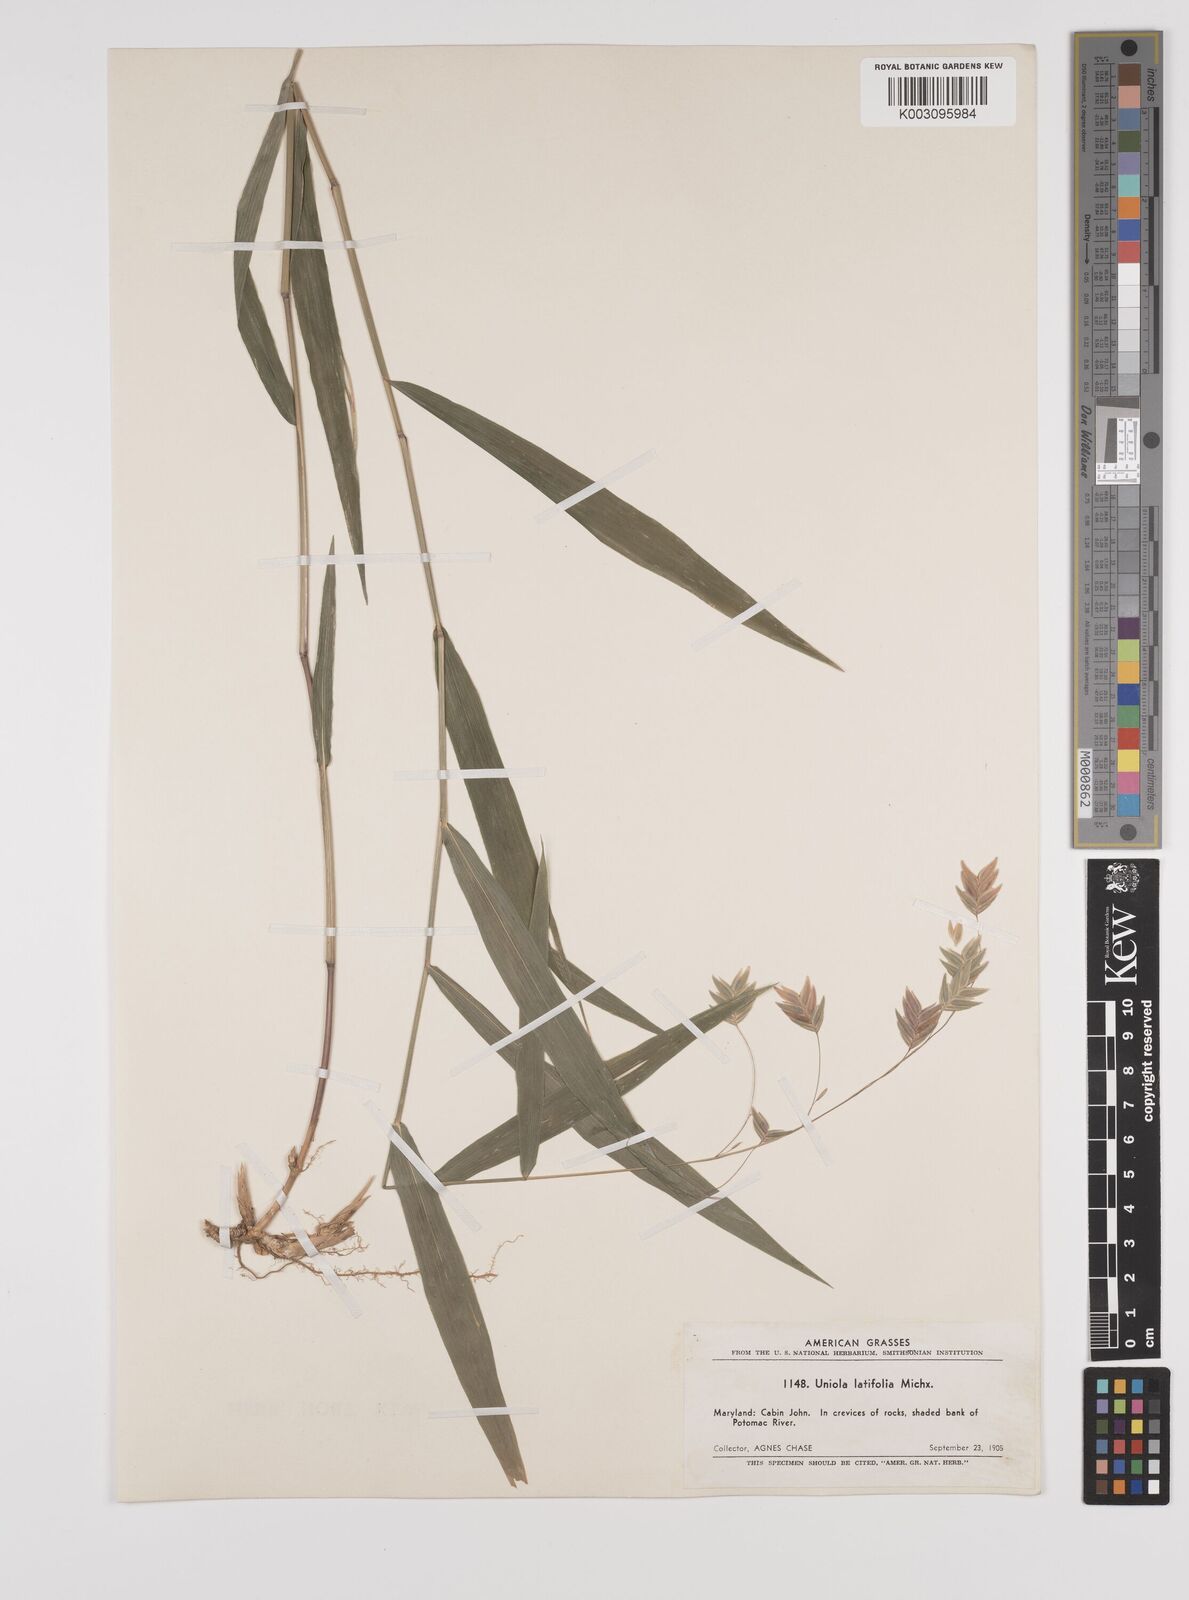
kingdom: Plantae
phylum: Tracheophyta
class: Liliopsida
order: Poales
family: Poaceae
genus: Chasmanthium
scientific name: Chasmanthium latifolium
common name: Broad-leaved chasmanthium
